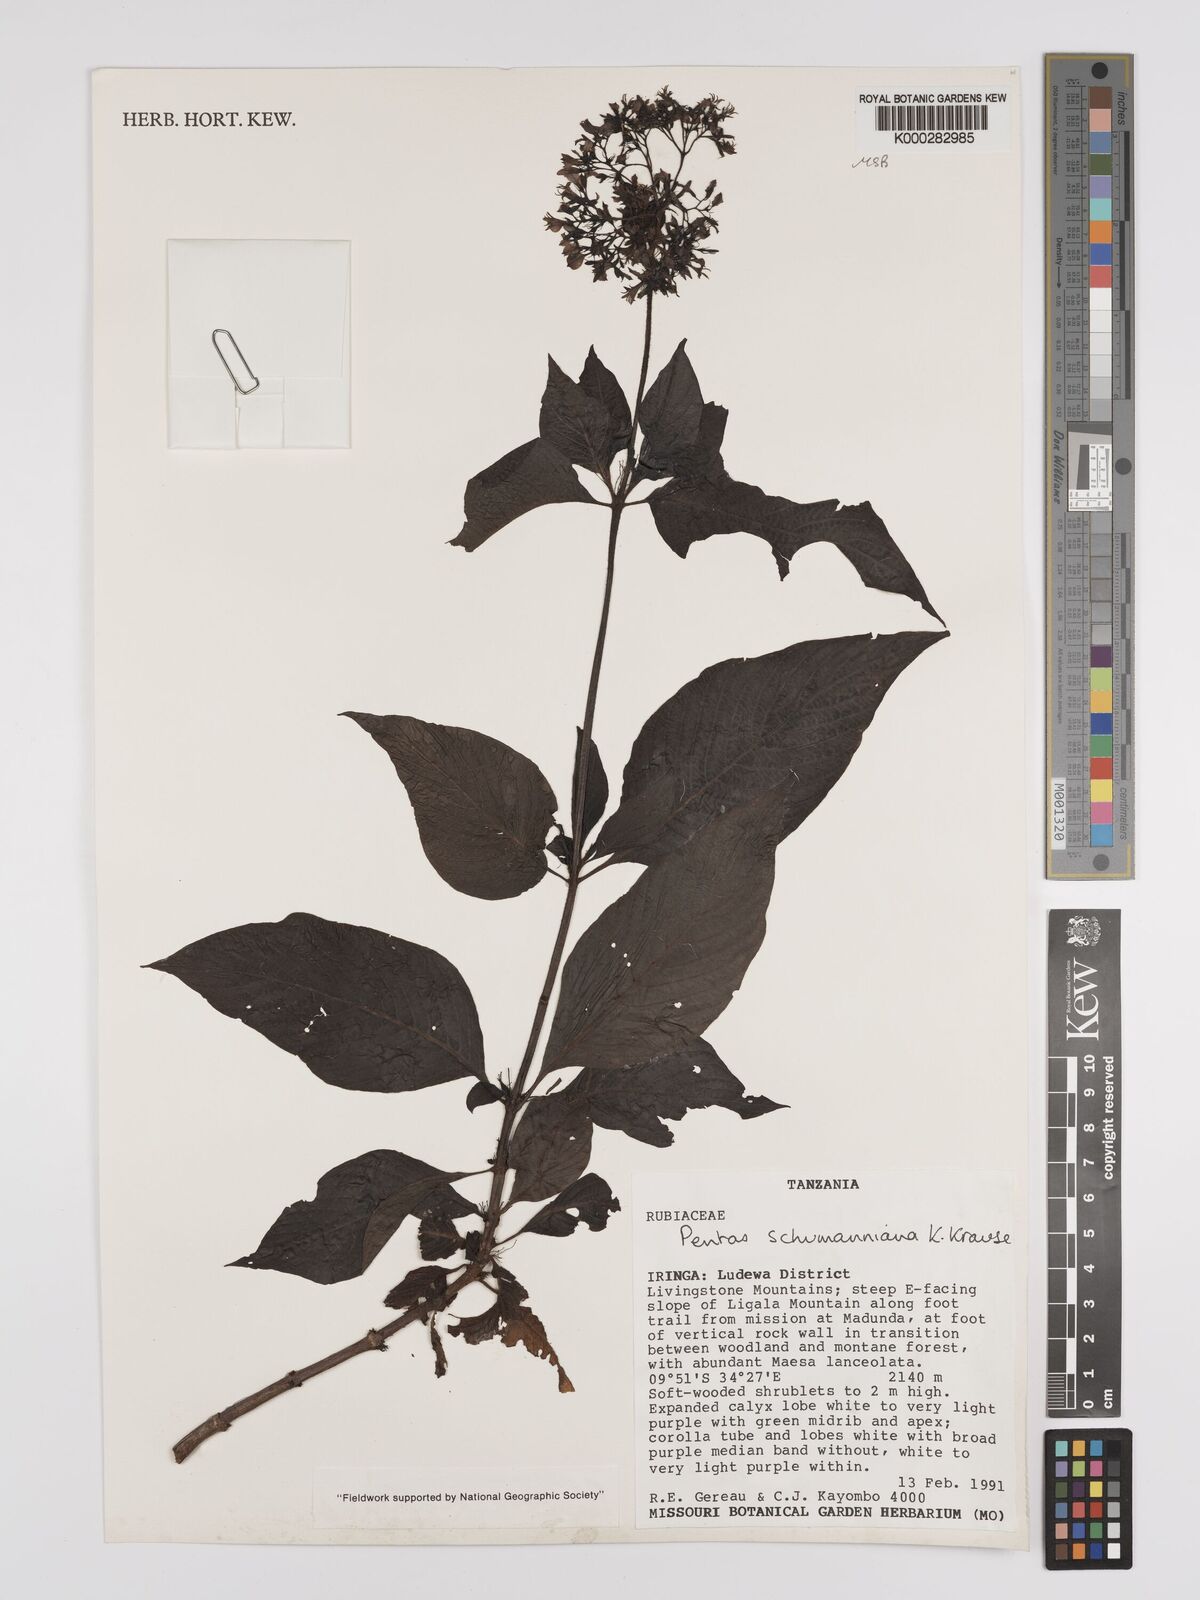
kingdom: Plantae
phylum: Tracheophyta
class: Magnoliopsida
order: Gentianales
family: Rubiaceae
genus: Phyllopentas
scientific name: Phyllopentas schumanniana
